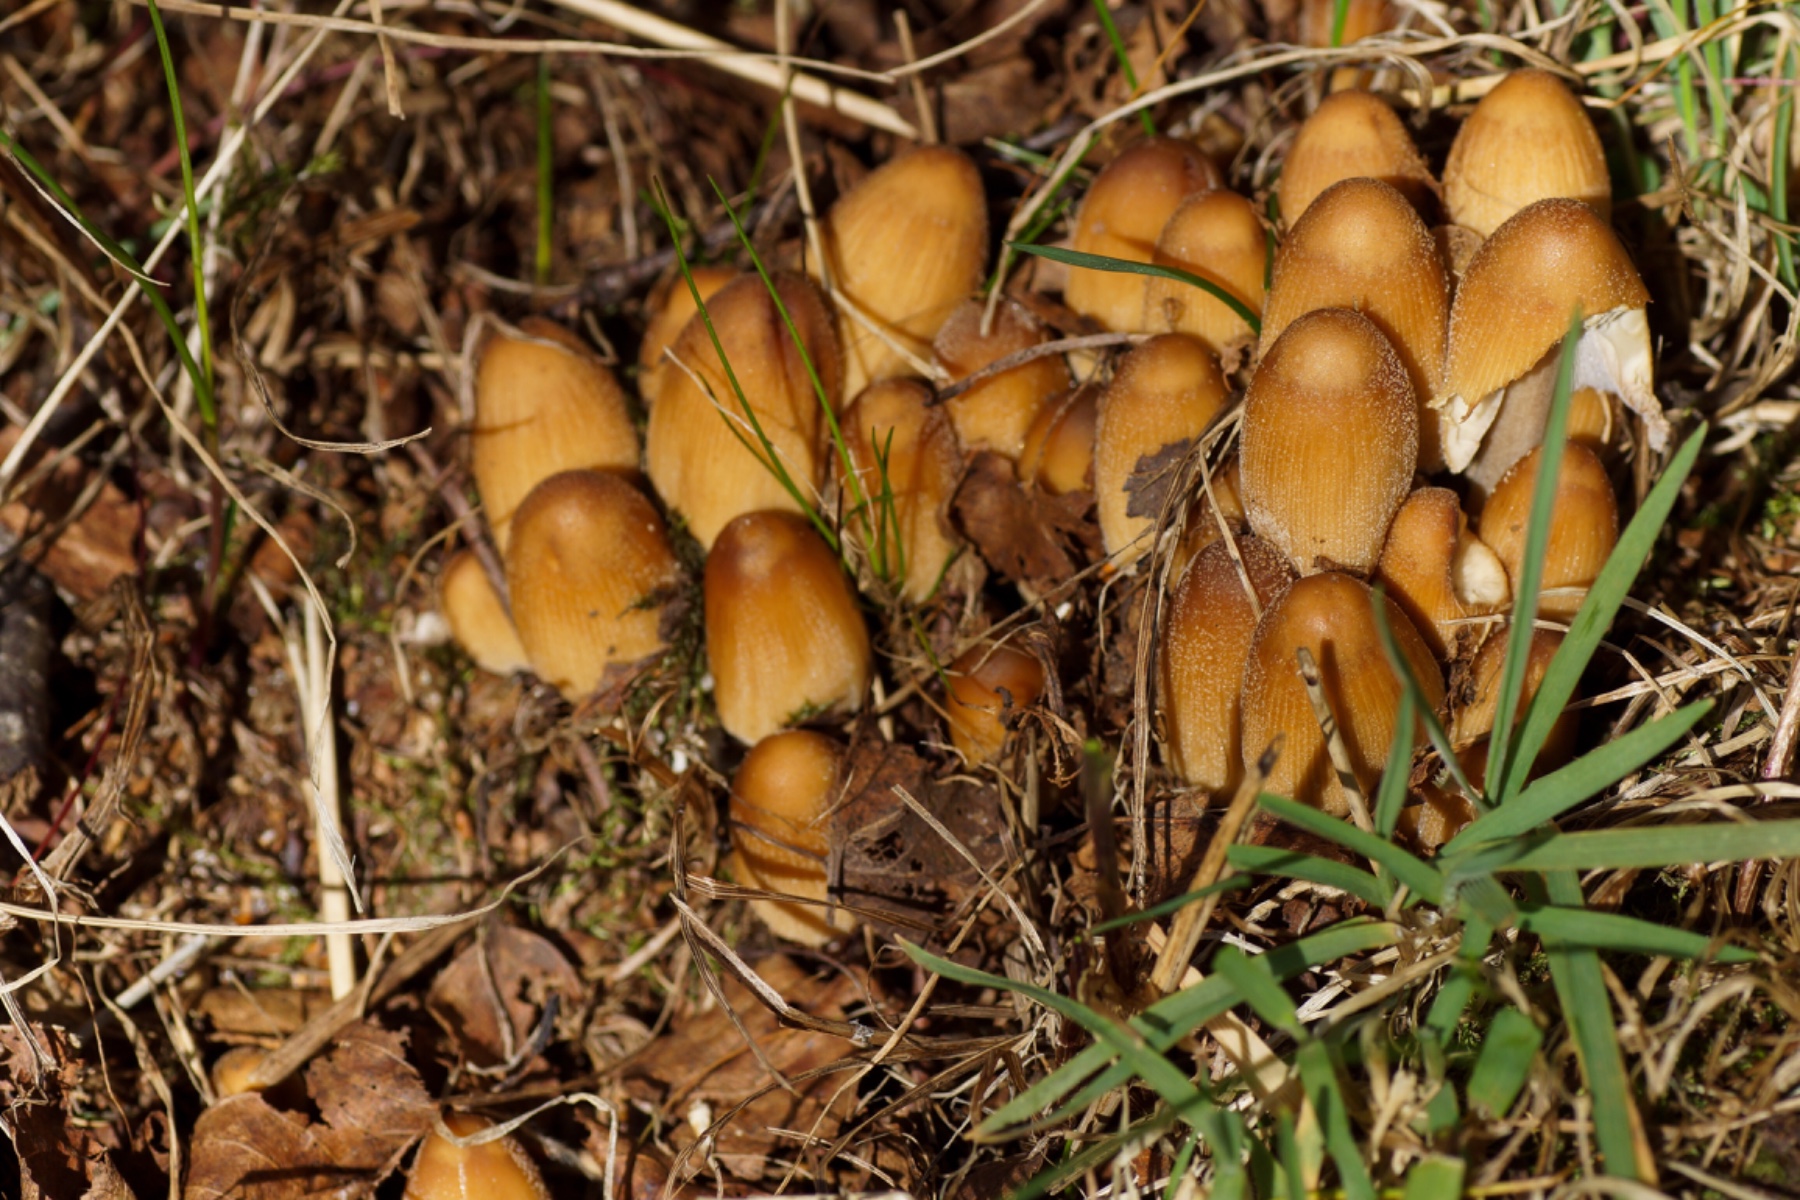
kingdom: Fungi
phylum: Basidiomycota
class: Agaricomycetes
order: Agaricales
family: Psathyrellaceae
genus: Coprinellus
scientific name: Coprinellus micaceus
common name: glimmer-blækhat
